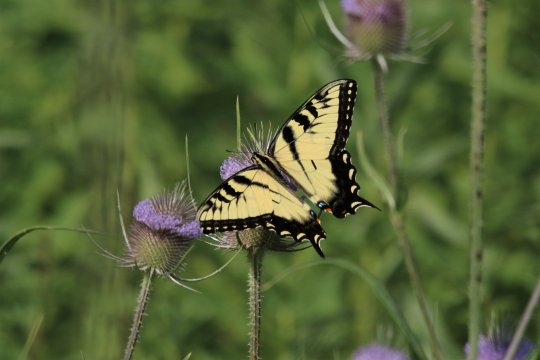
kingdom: Animalia
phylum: Arthropoda
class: Insecta
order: Lepidoptera
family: Papilionidae
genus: Pterourus
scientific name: Pterourus glaucus
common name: Eastern Tiger Swallowtail
